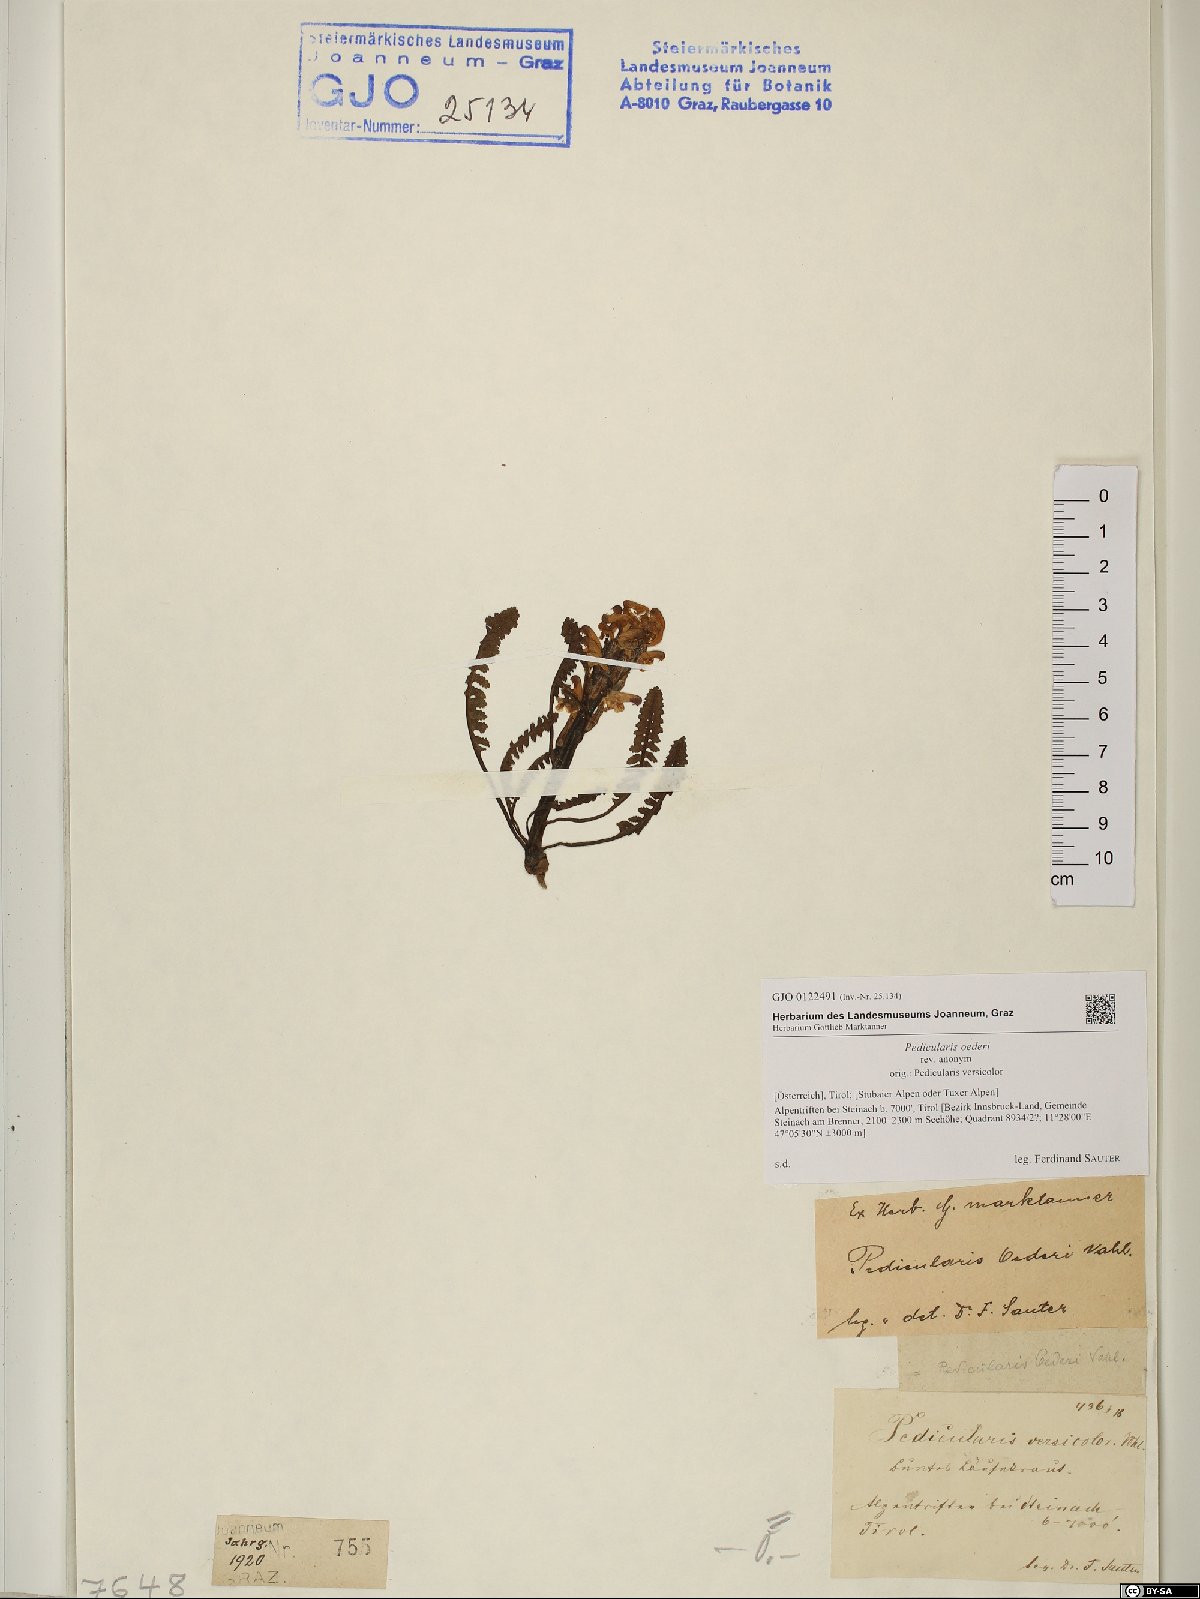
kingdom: Plantae
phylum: Tracheophyta
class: Magnoliopsida
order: Lamiales
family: Orobanchaceae
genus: Pedicularis
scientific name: Pedicularis oederi
